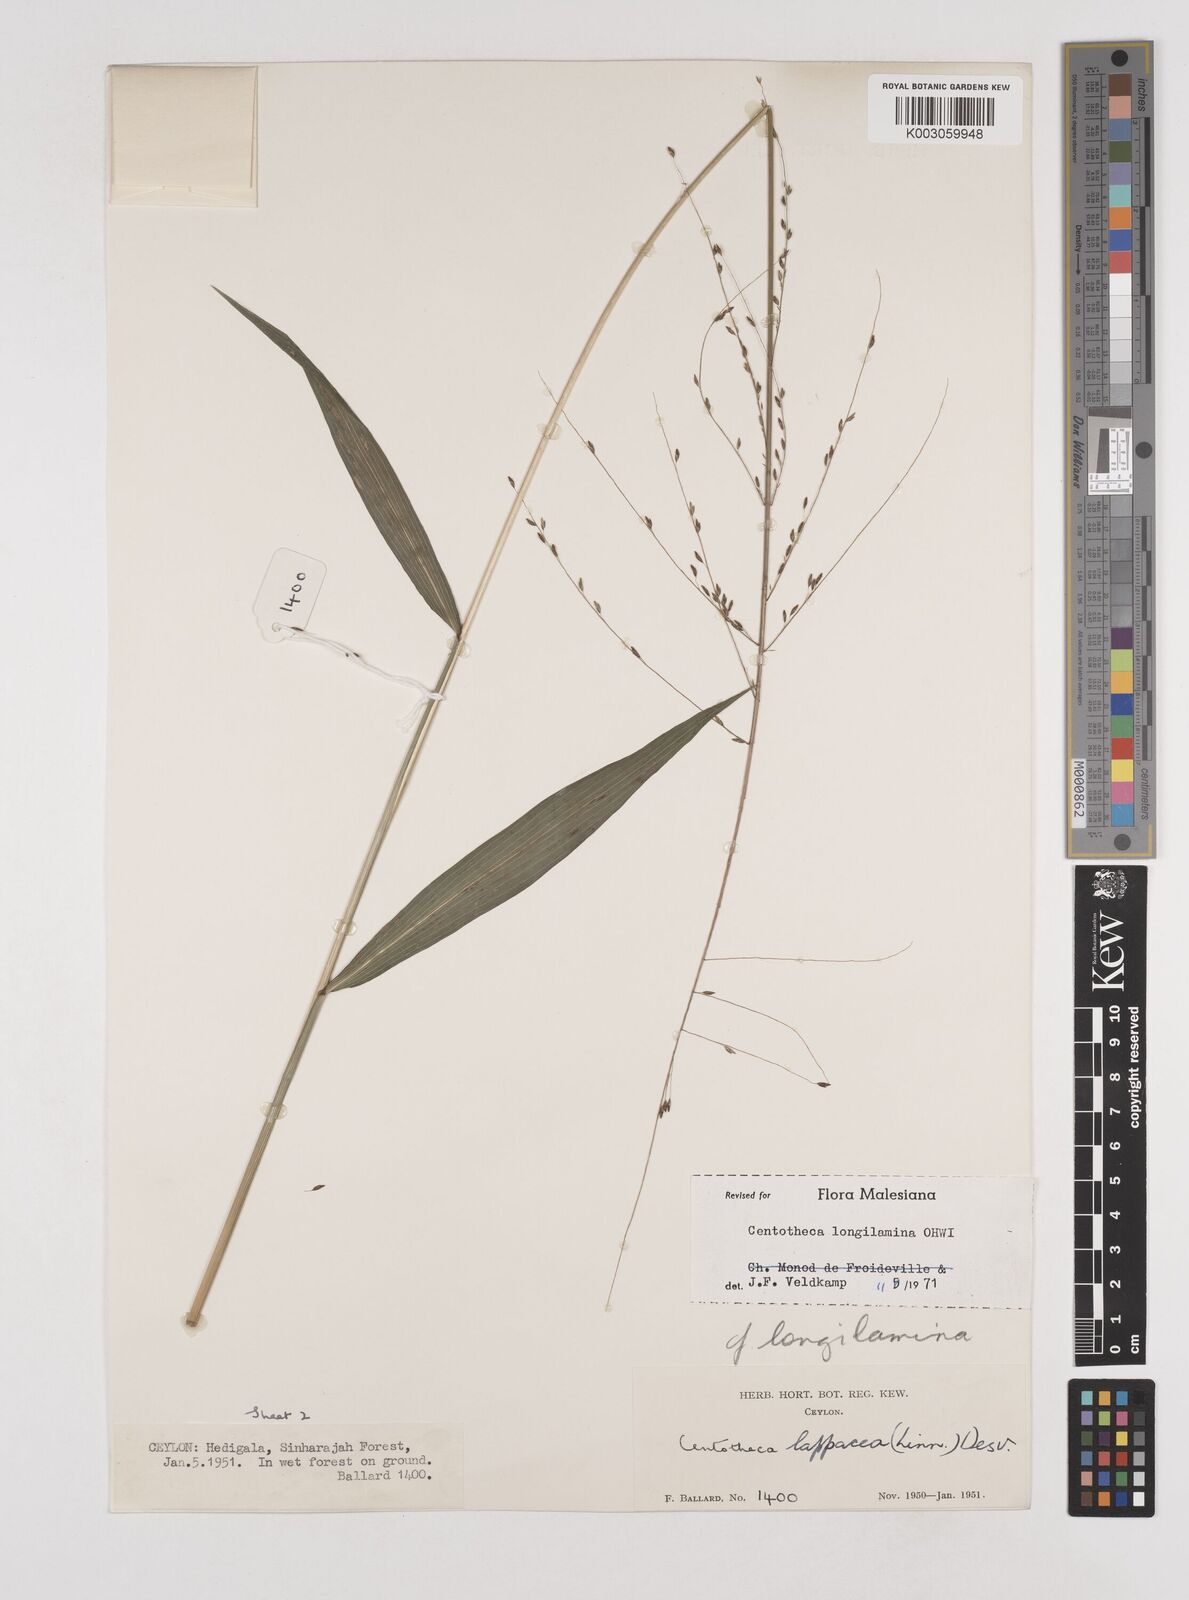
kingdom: Plantae
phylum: Tracheophyta
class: Liliopsida
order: Poales
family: Poaceae
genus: Centotheca
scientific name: Centotheca lappacea
